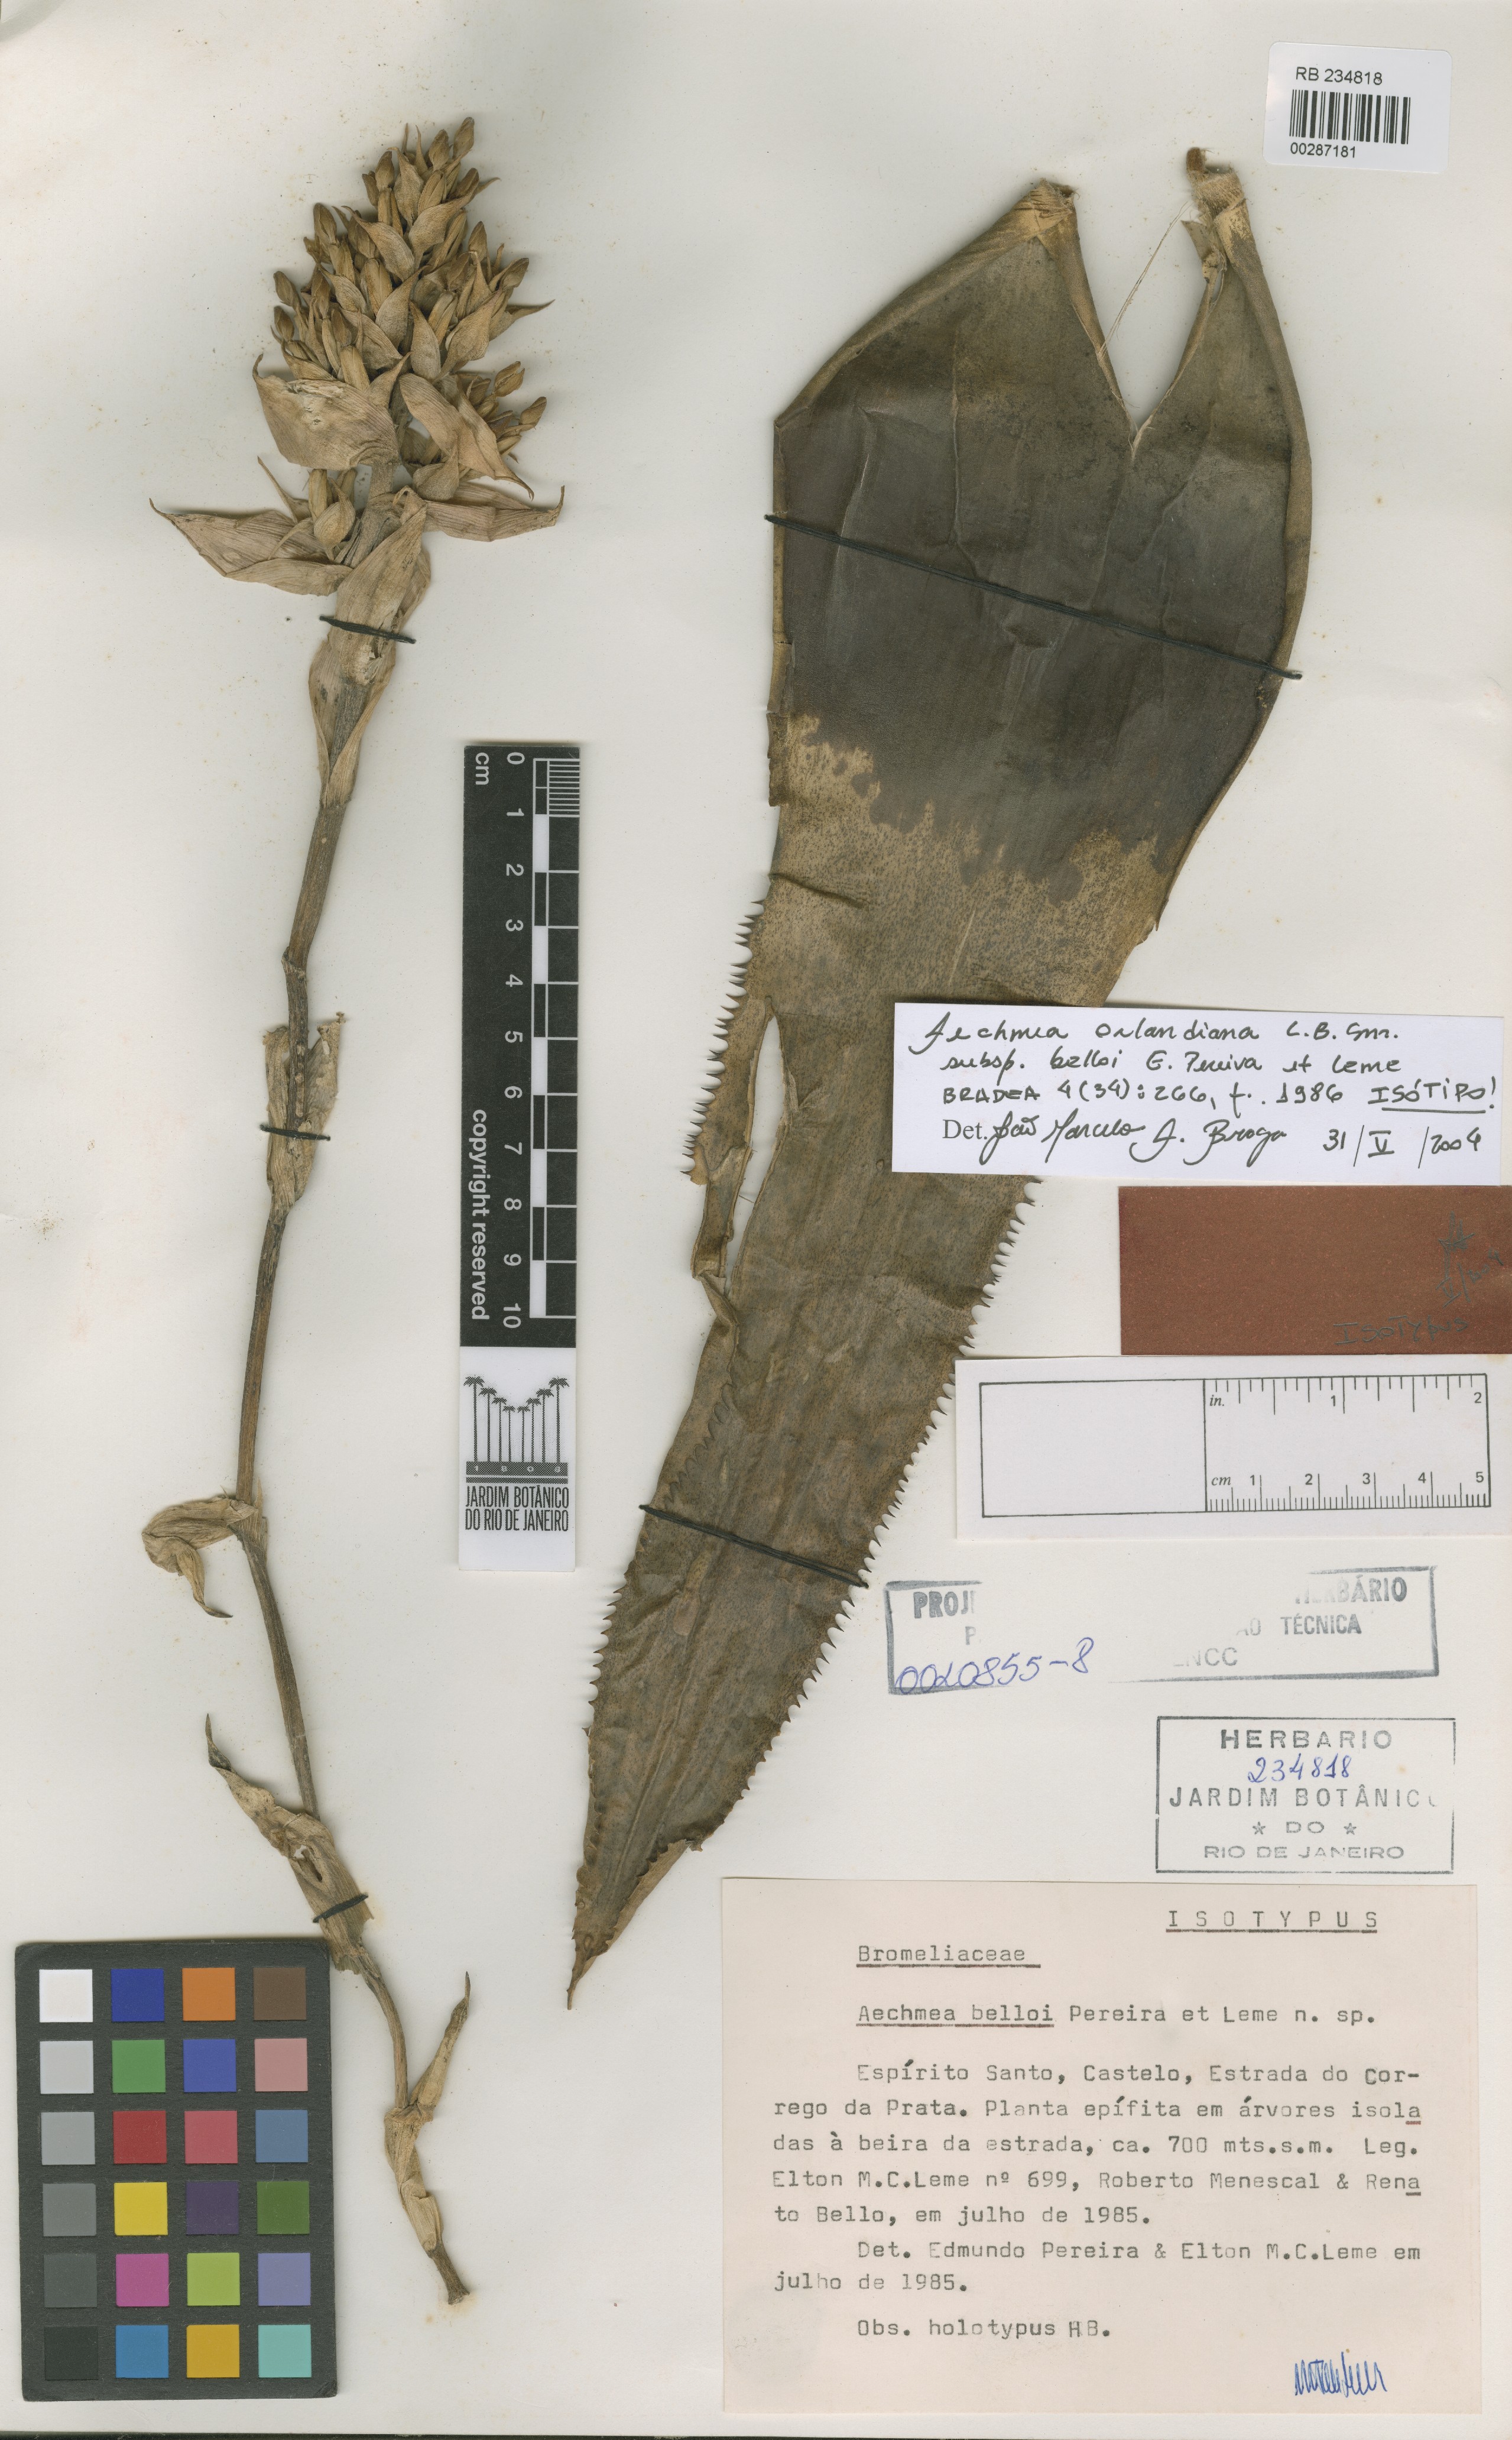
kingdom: Plantae
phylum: Tracheophyta
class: Liliopsida
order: Poales
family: Bromeliaceae
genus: Aechmea
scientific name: Aechmea orlandiana
